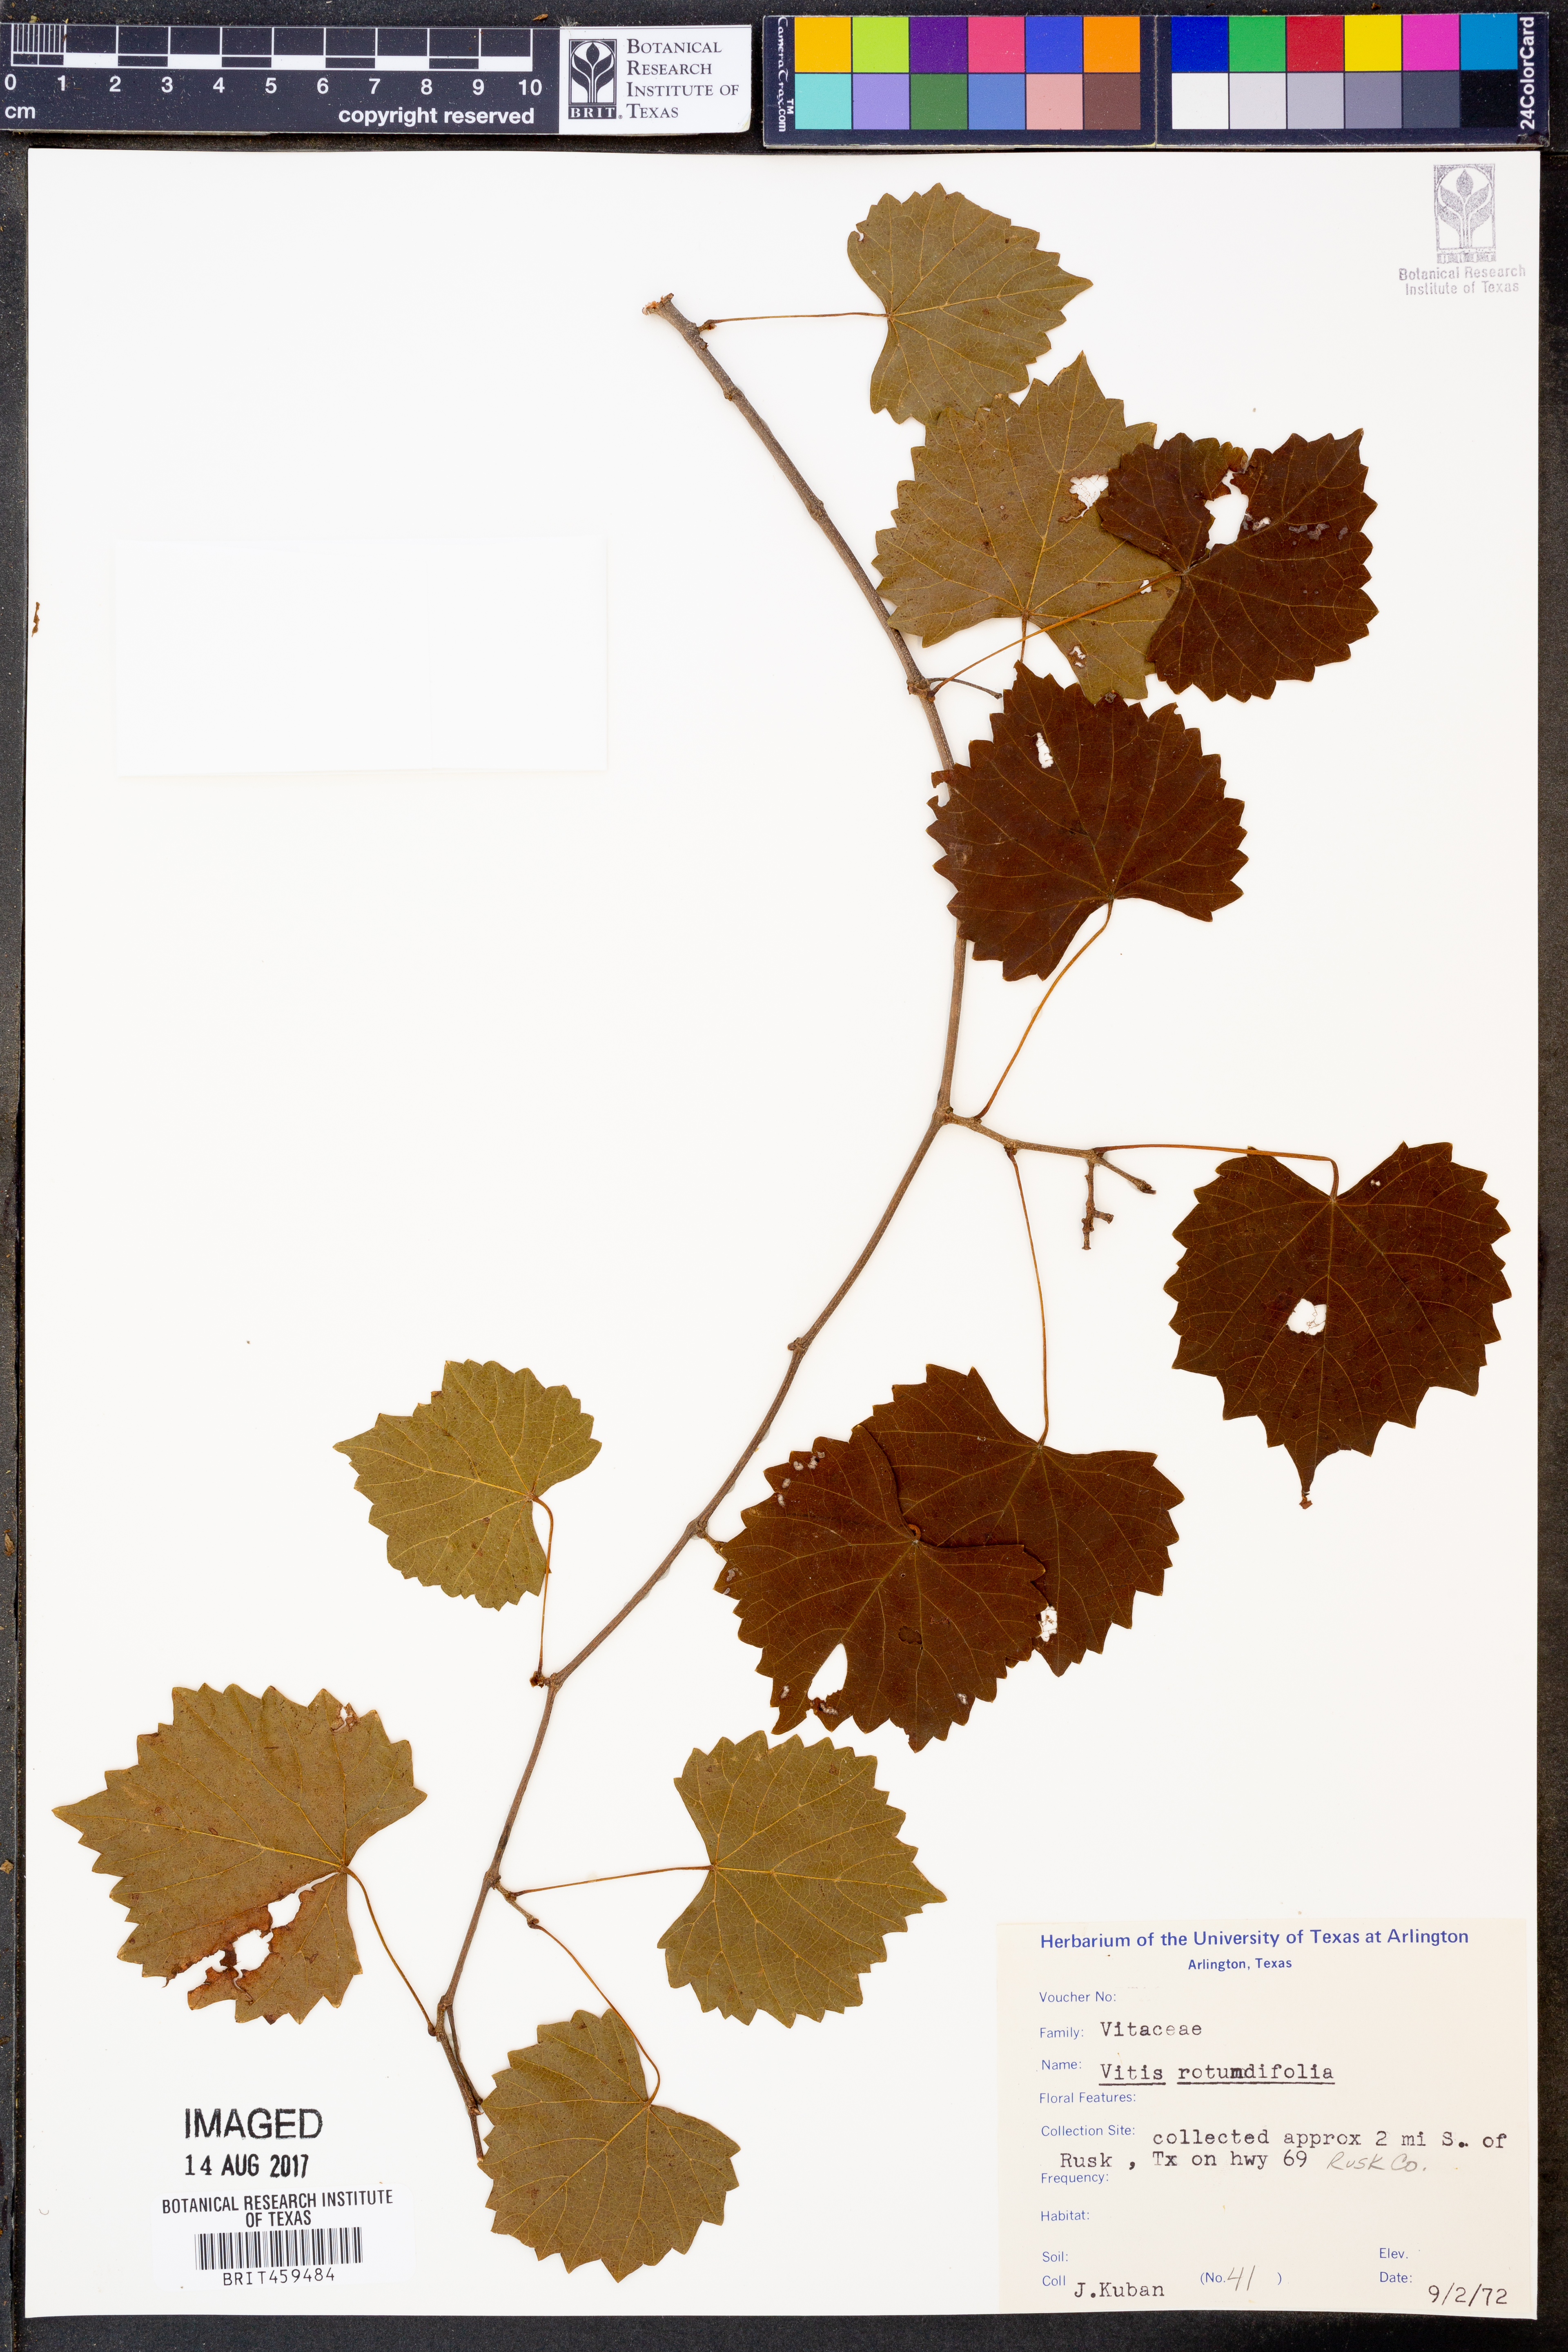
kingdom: Plantae
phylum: Tracheophyta
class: Magnoliopsida
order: Vitales
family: Vitaceae
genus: Vitis
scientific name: Vitis rotundifolia
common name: Muscadine grape
